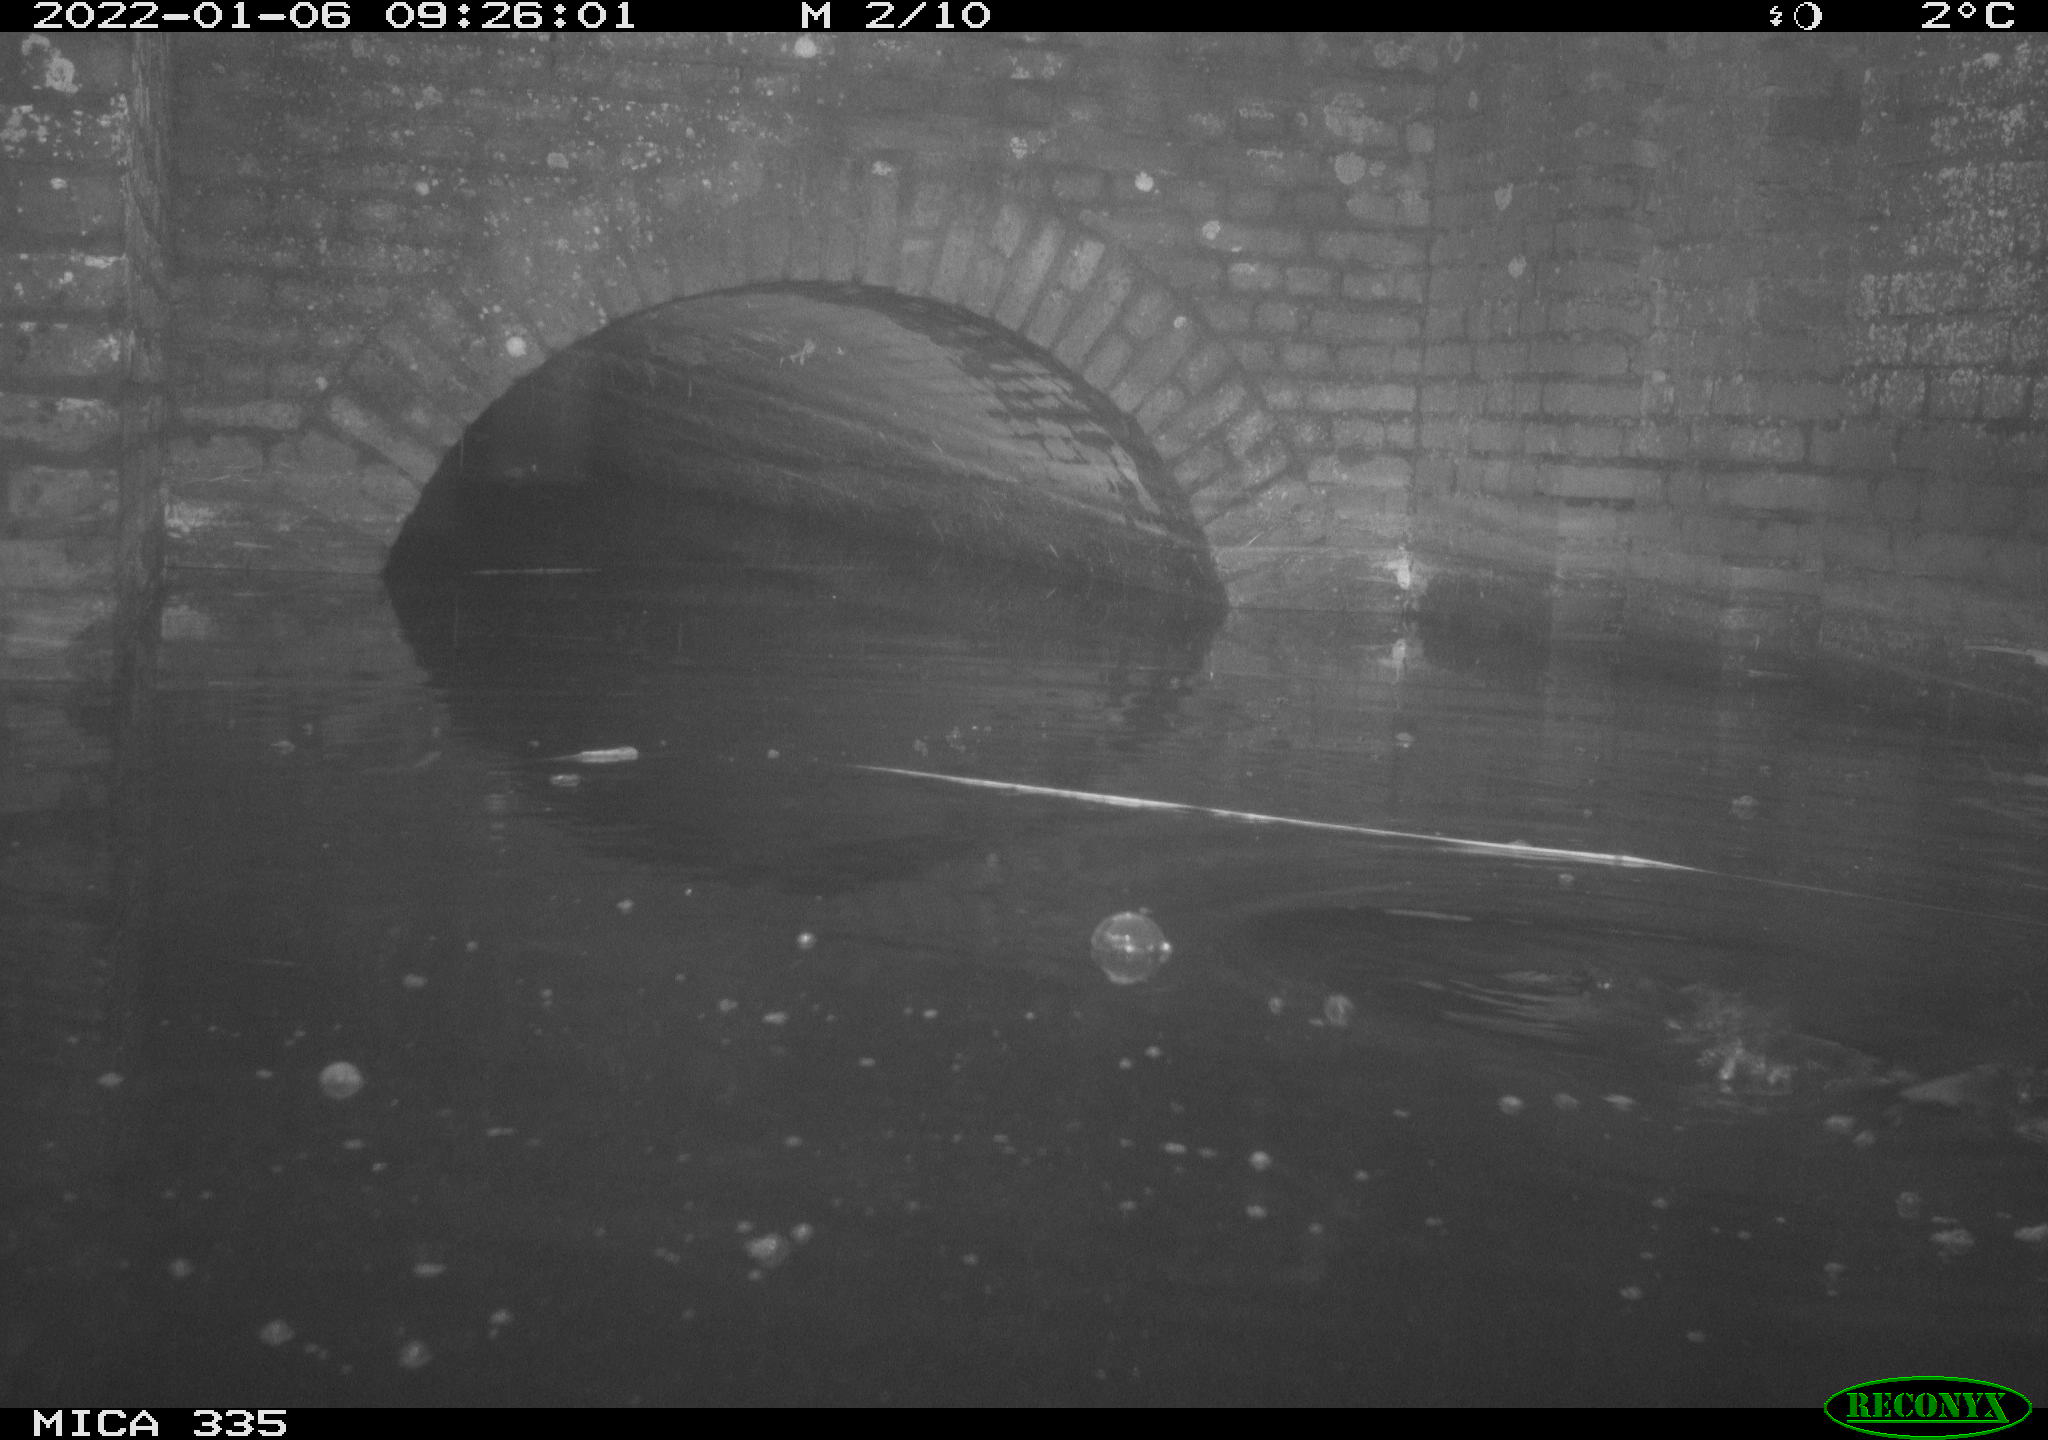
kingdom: Animalia
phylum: Chordata
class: Aves
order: Suliformes
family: Phalacrocoracidae
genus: Phalacrocorax
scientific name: Phalacrocorax carbo
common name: Great cormorant
